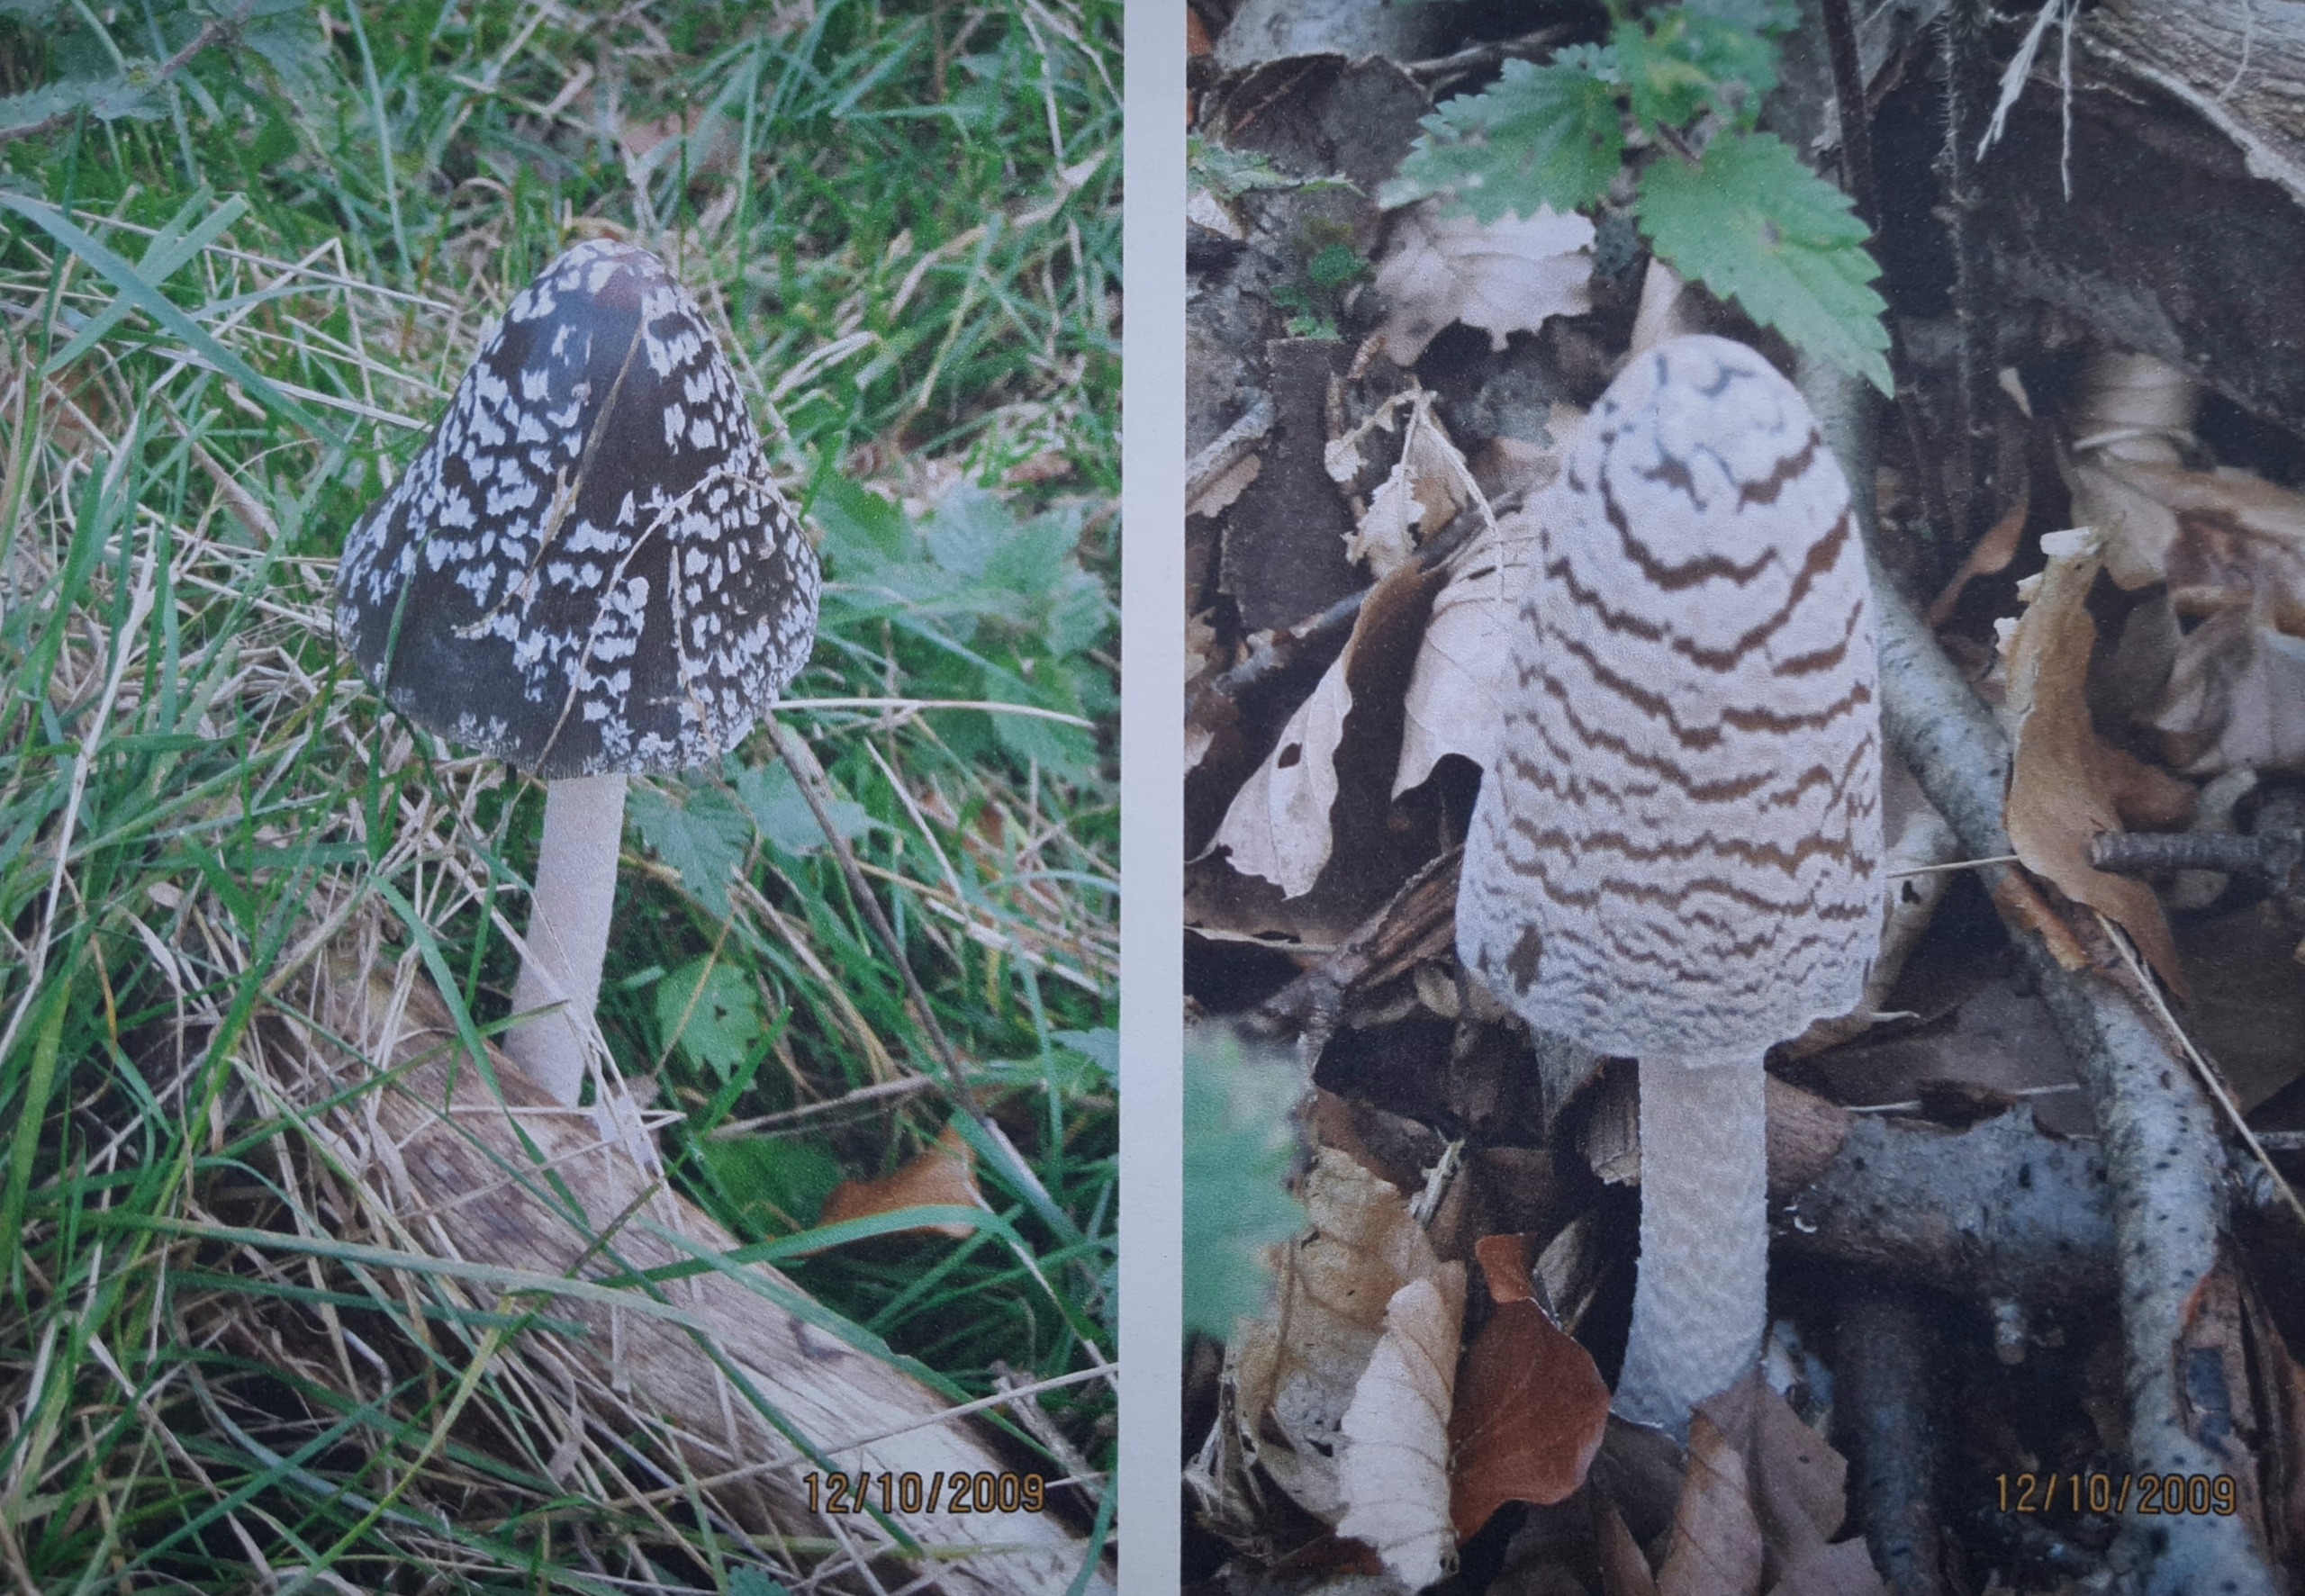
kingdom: Fungi
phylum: Basidiomycota
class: Agaricomycetes
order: Agaricales
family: Psathyrellaceae
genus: Coprinopsis
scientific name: Coprinopsis picacea
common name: Skade-blækhat
